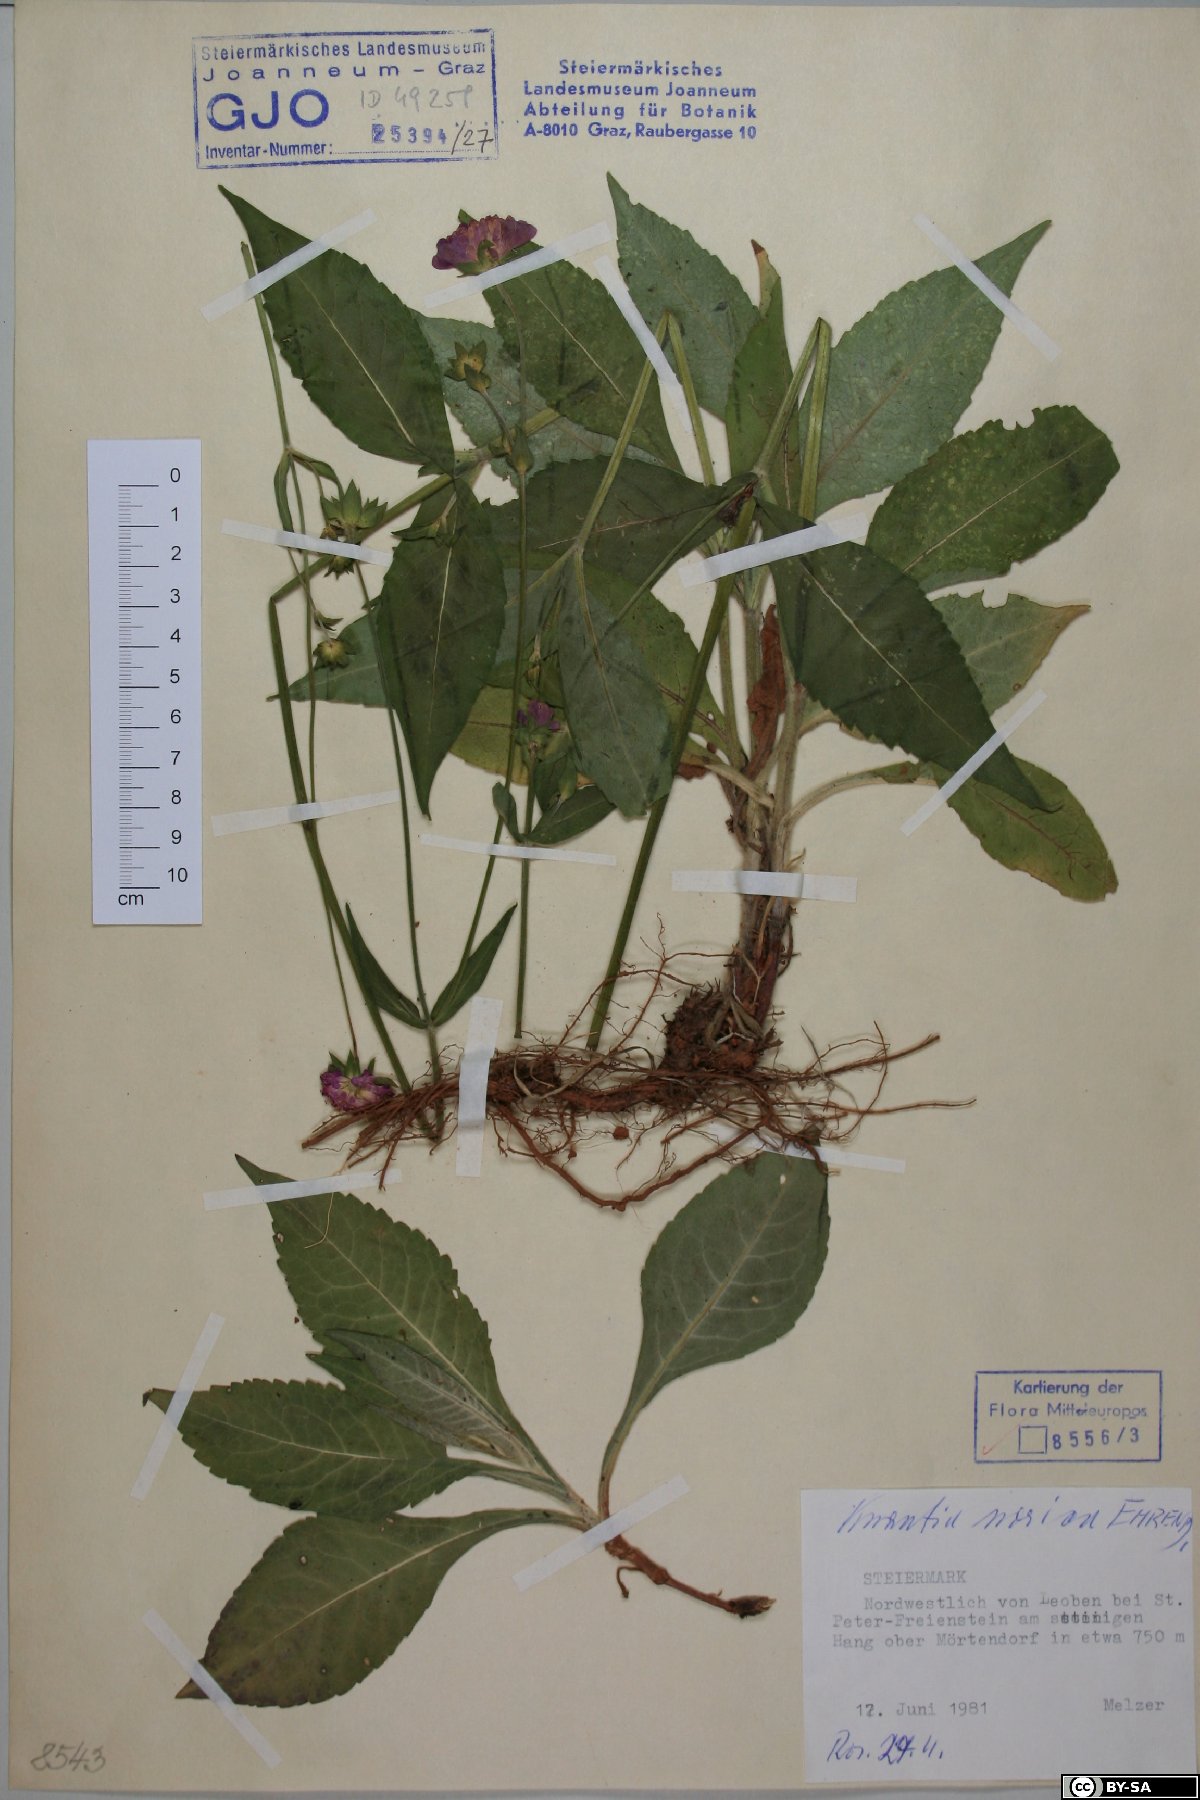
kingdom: Plantae
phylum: Tracheophyta
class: Magnoliopsida
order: Dipsacales
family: Caprifoliaceae
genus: Knautia
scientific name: Knautia norica
